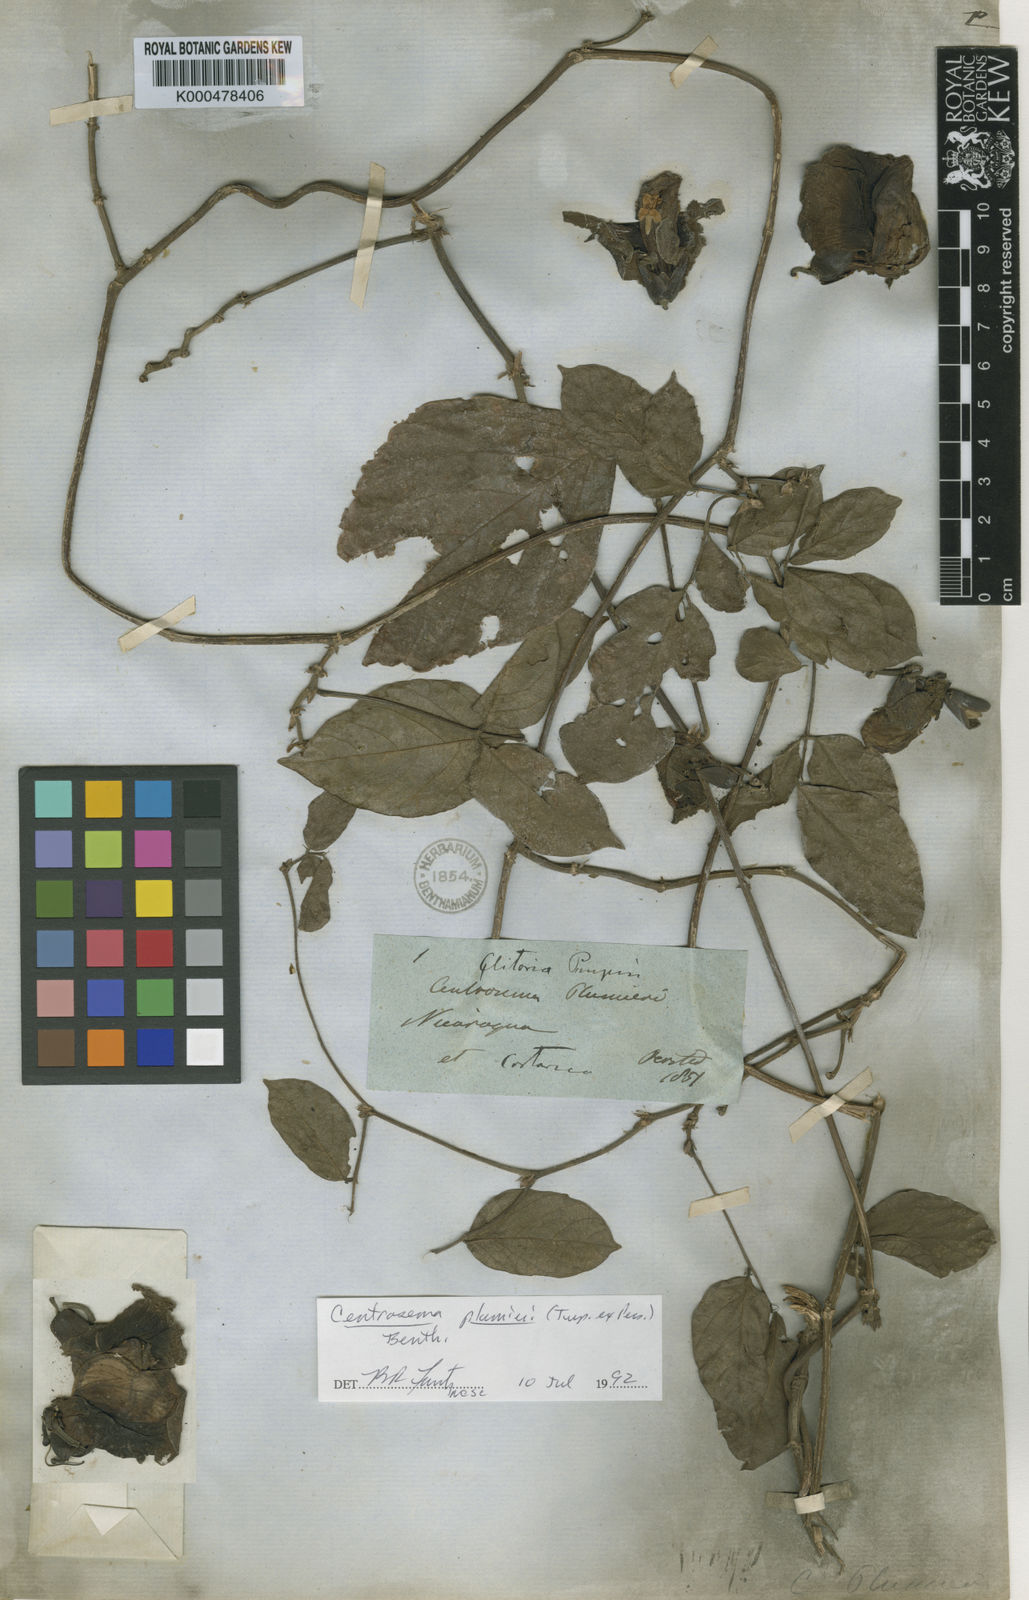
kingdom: Plantae
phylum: Tracheophyta
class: Magnoliopsida
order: Fabales
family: Fabaceae
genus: Centrosema
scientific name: Centrosema plumieri
